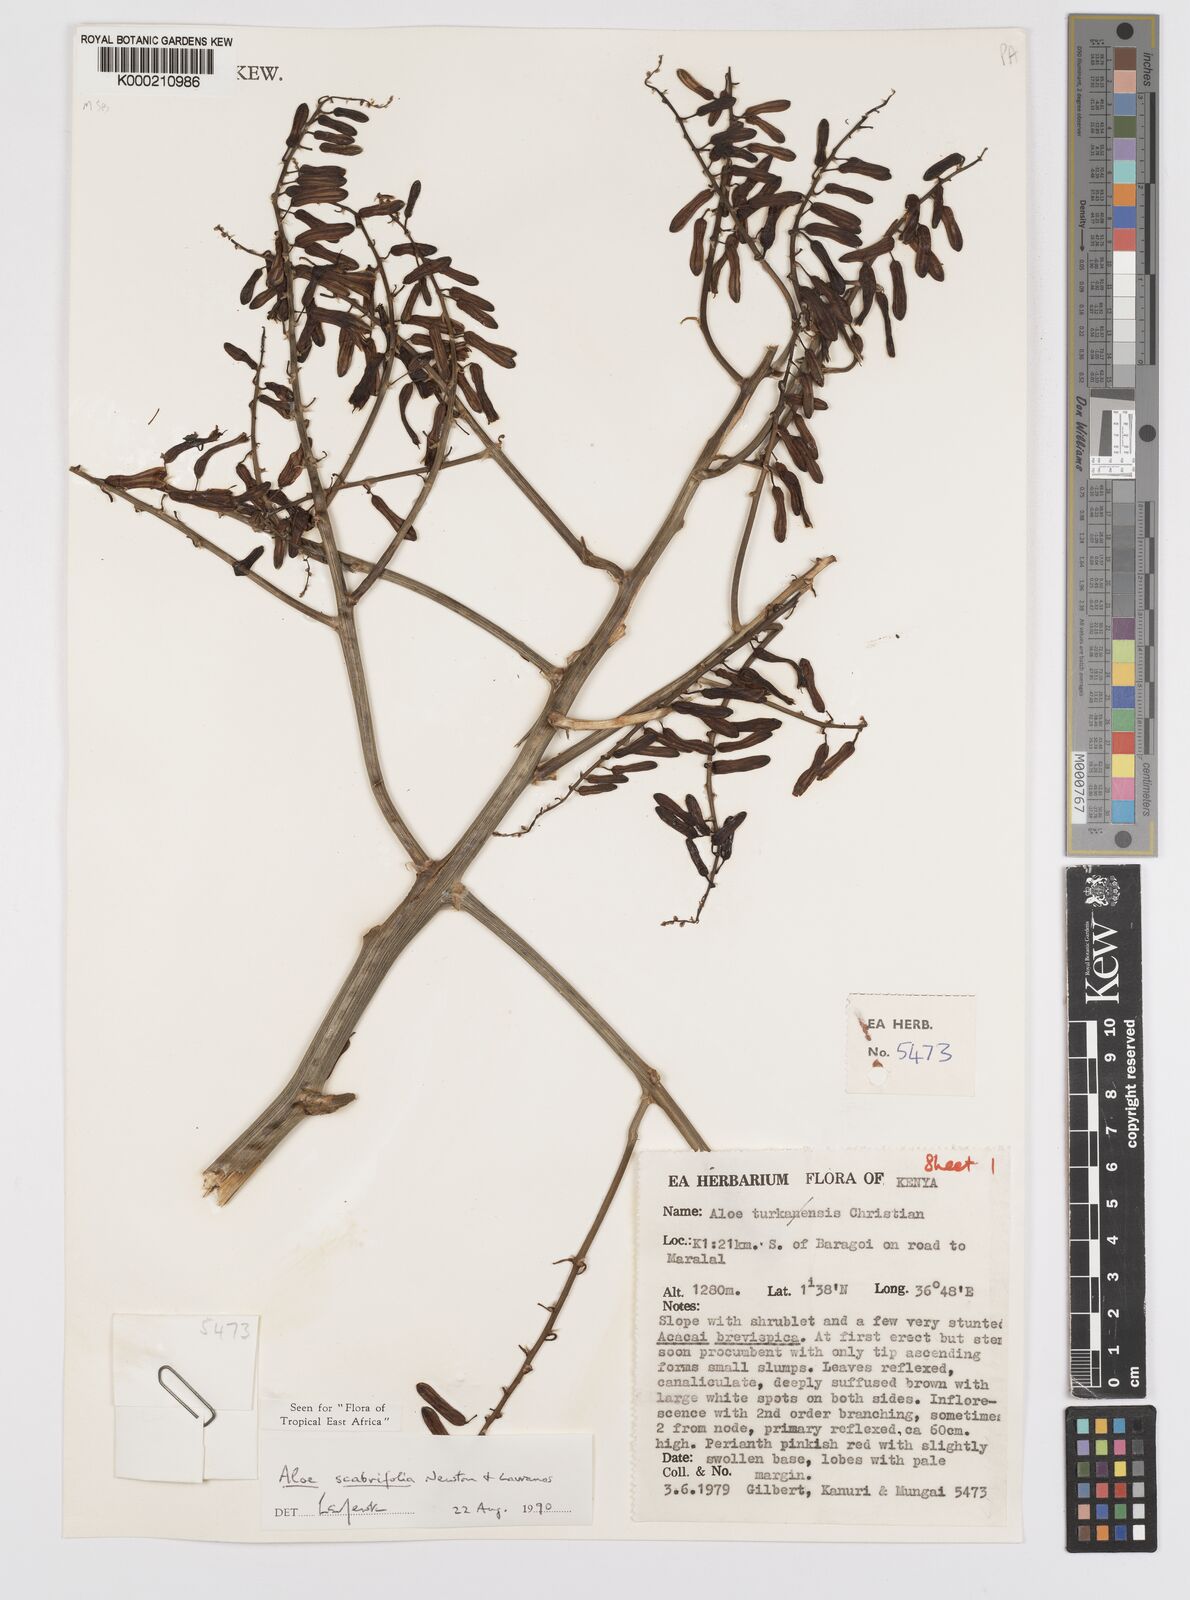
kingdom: Plantae
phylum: Tracheophyta
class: Liliopsida
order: Asparagales
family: Asphodelaceae
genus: Aloe
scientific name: Aloe scabrifolia
